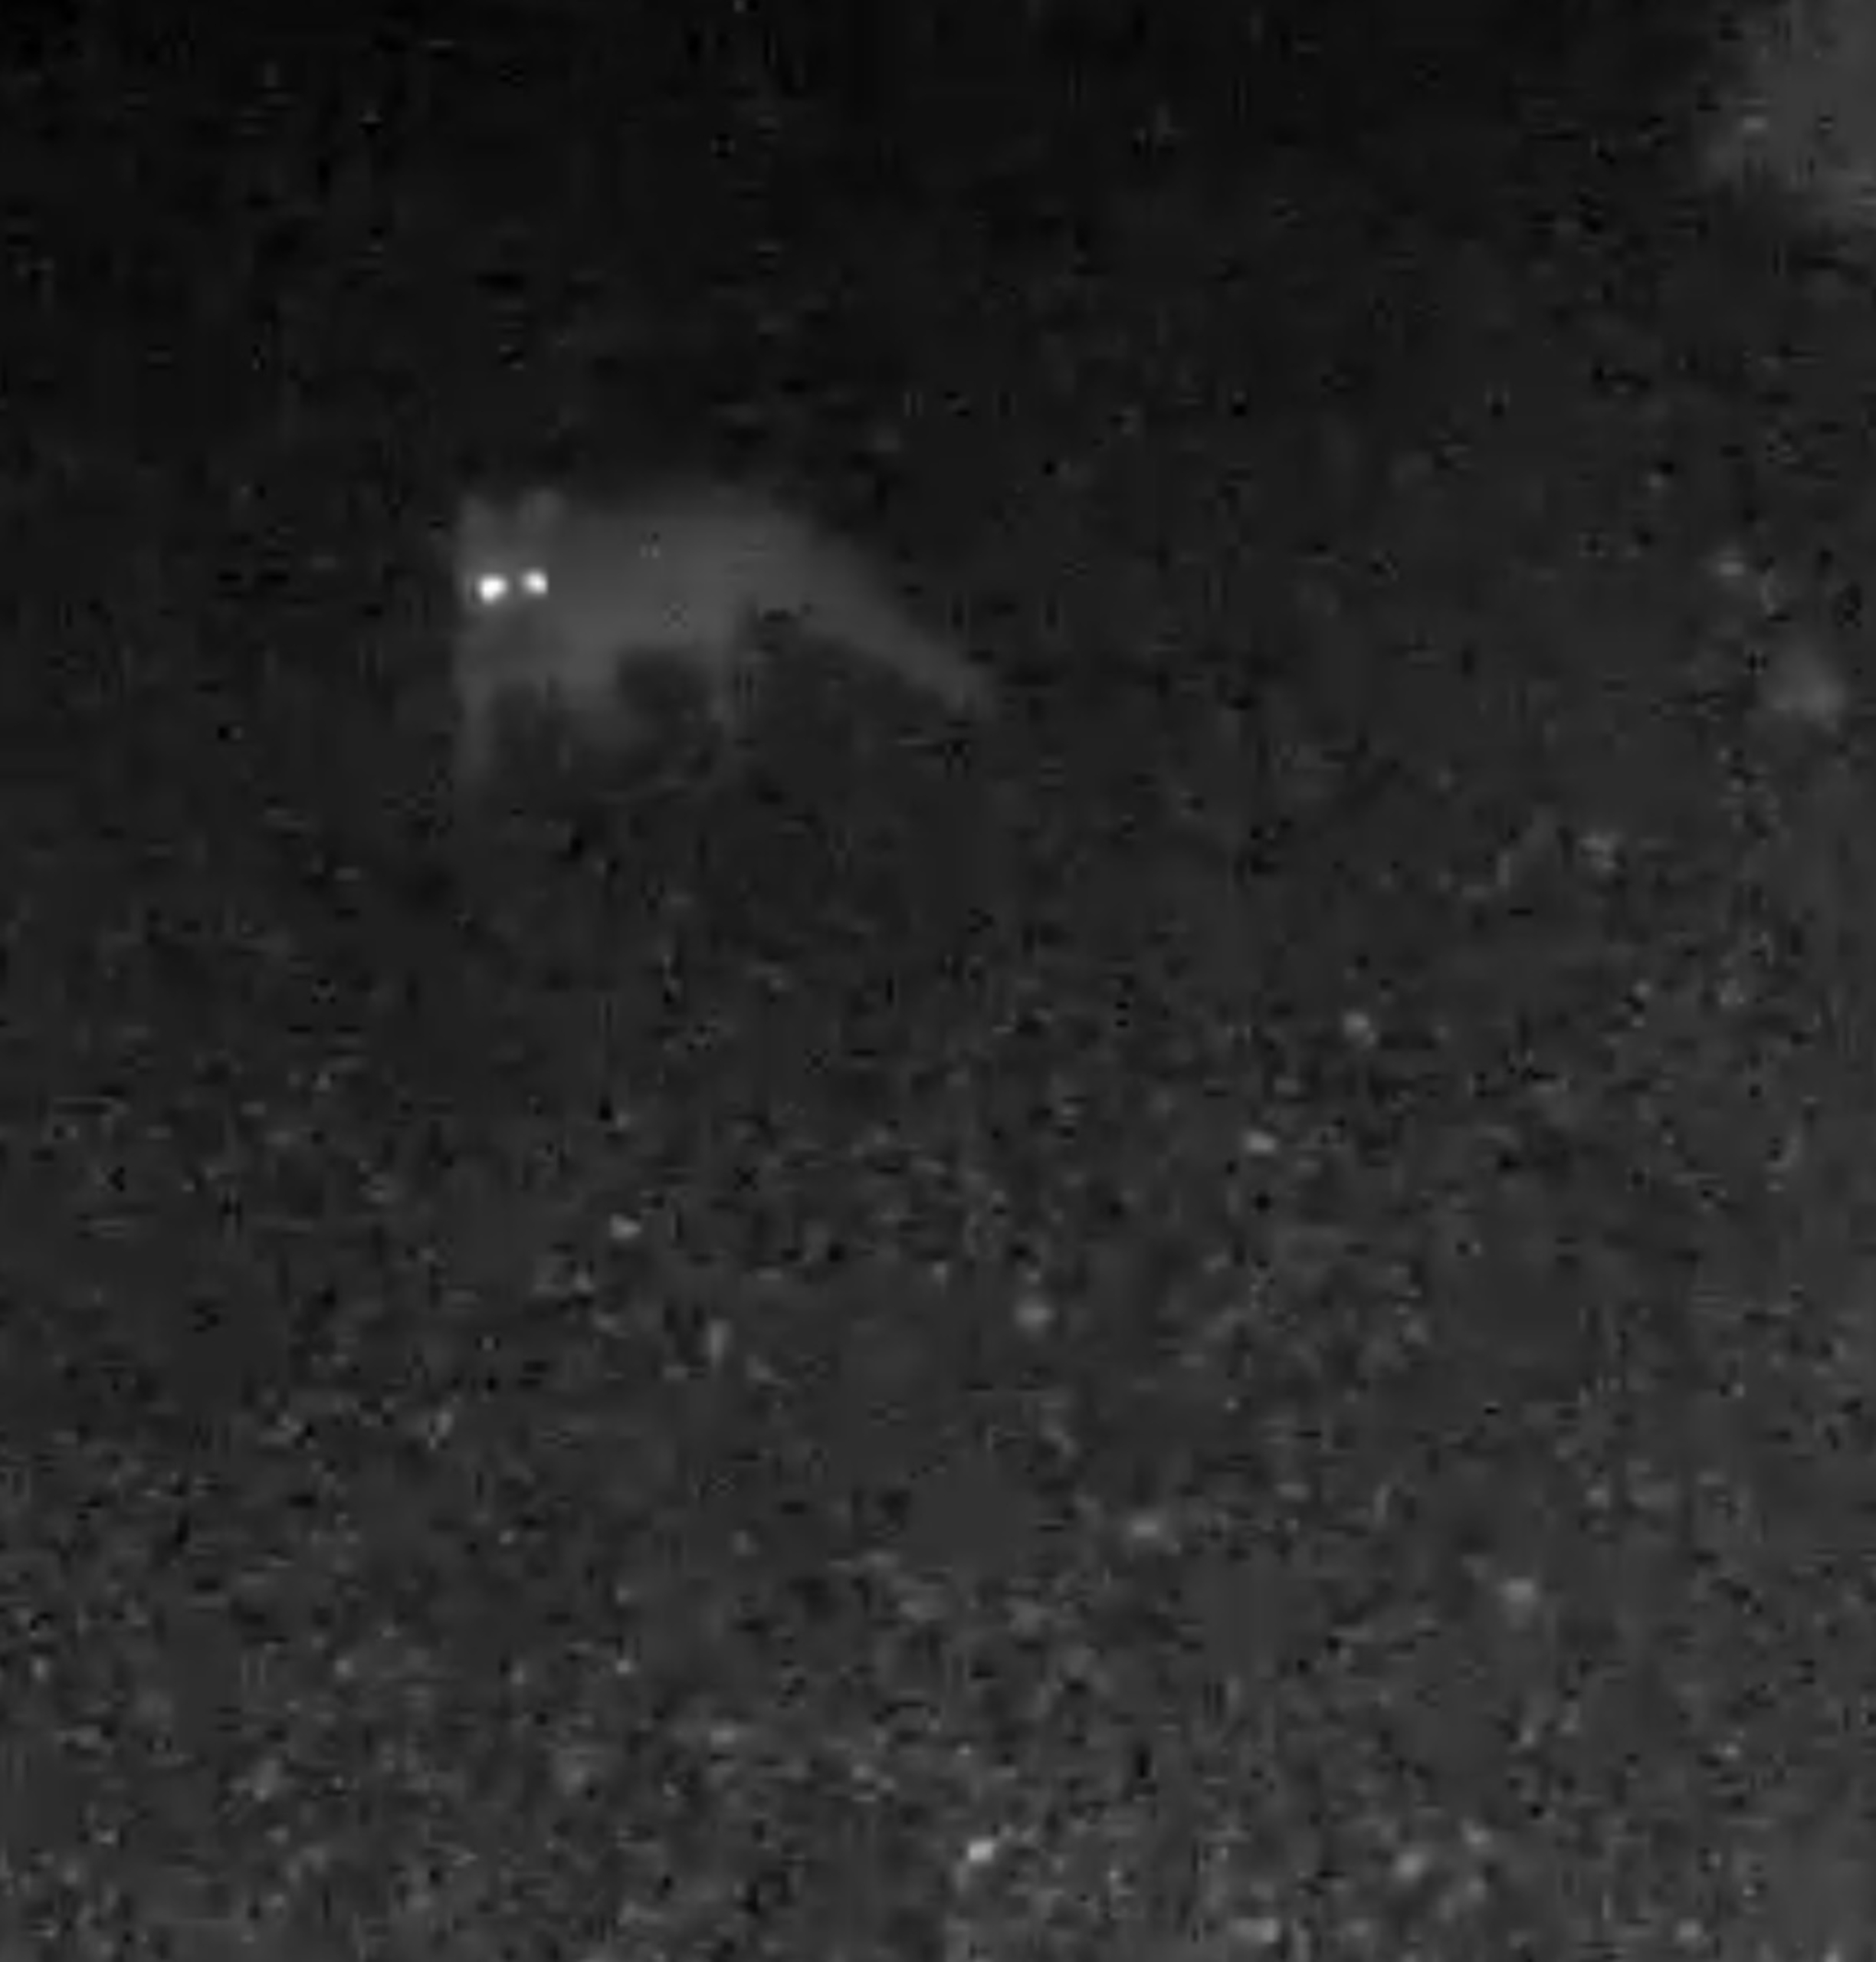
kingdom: Animalia
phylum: Chordata
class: Mammalia
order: Carnivora
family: Canidae
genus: Vulpes
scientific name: Vulpes vulpes
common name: Ræv
